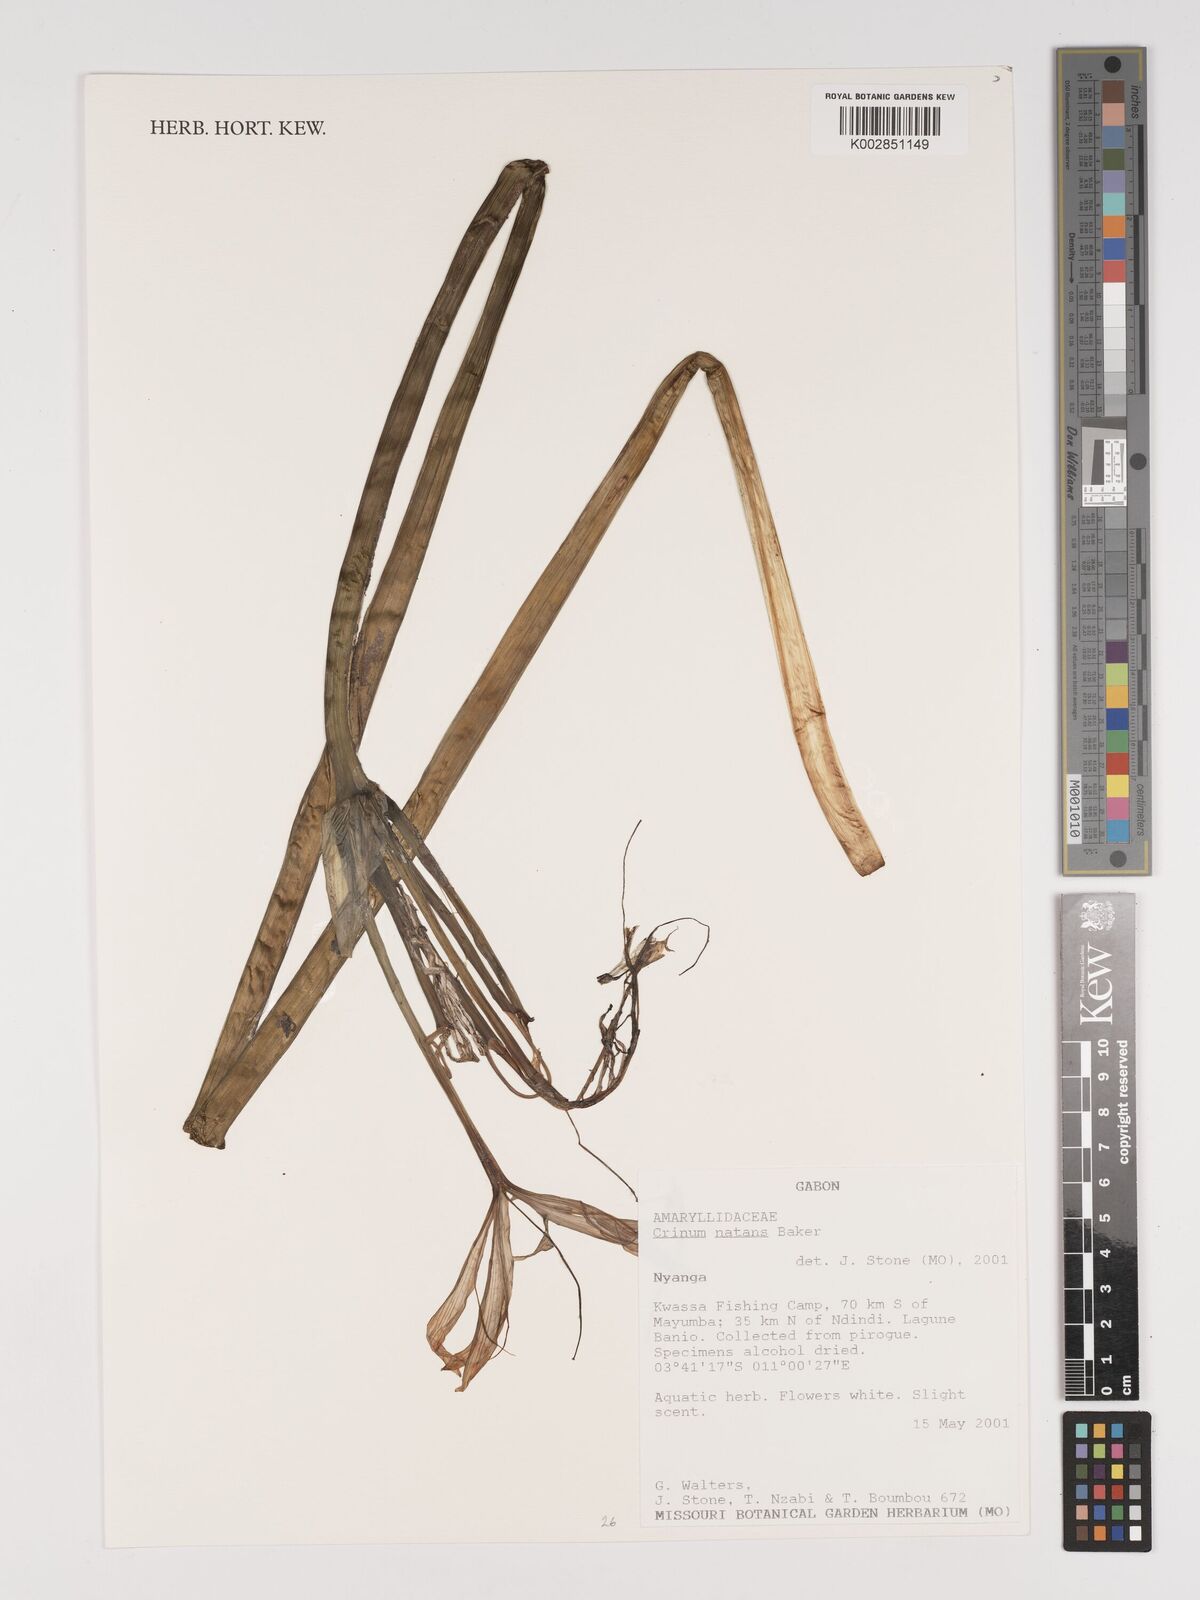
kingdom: Plantae
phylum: Tracheophyta
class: Liliopsida
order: Asparagales
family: Amaryllidaceae
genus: Crinum
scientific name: Crinum natans
